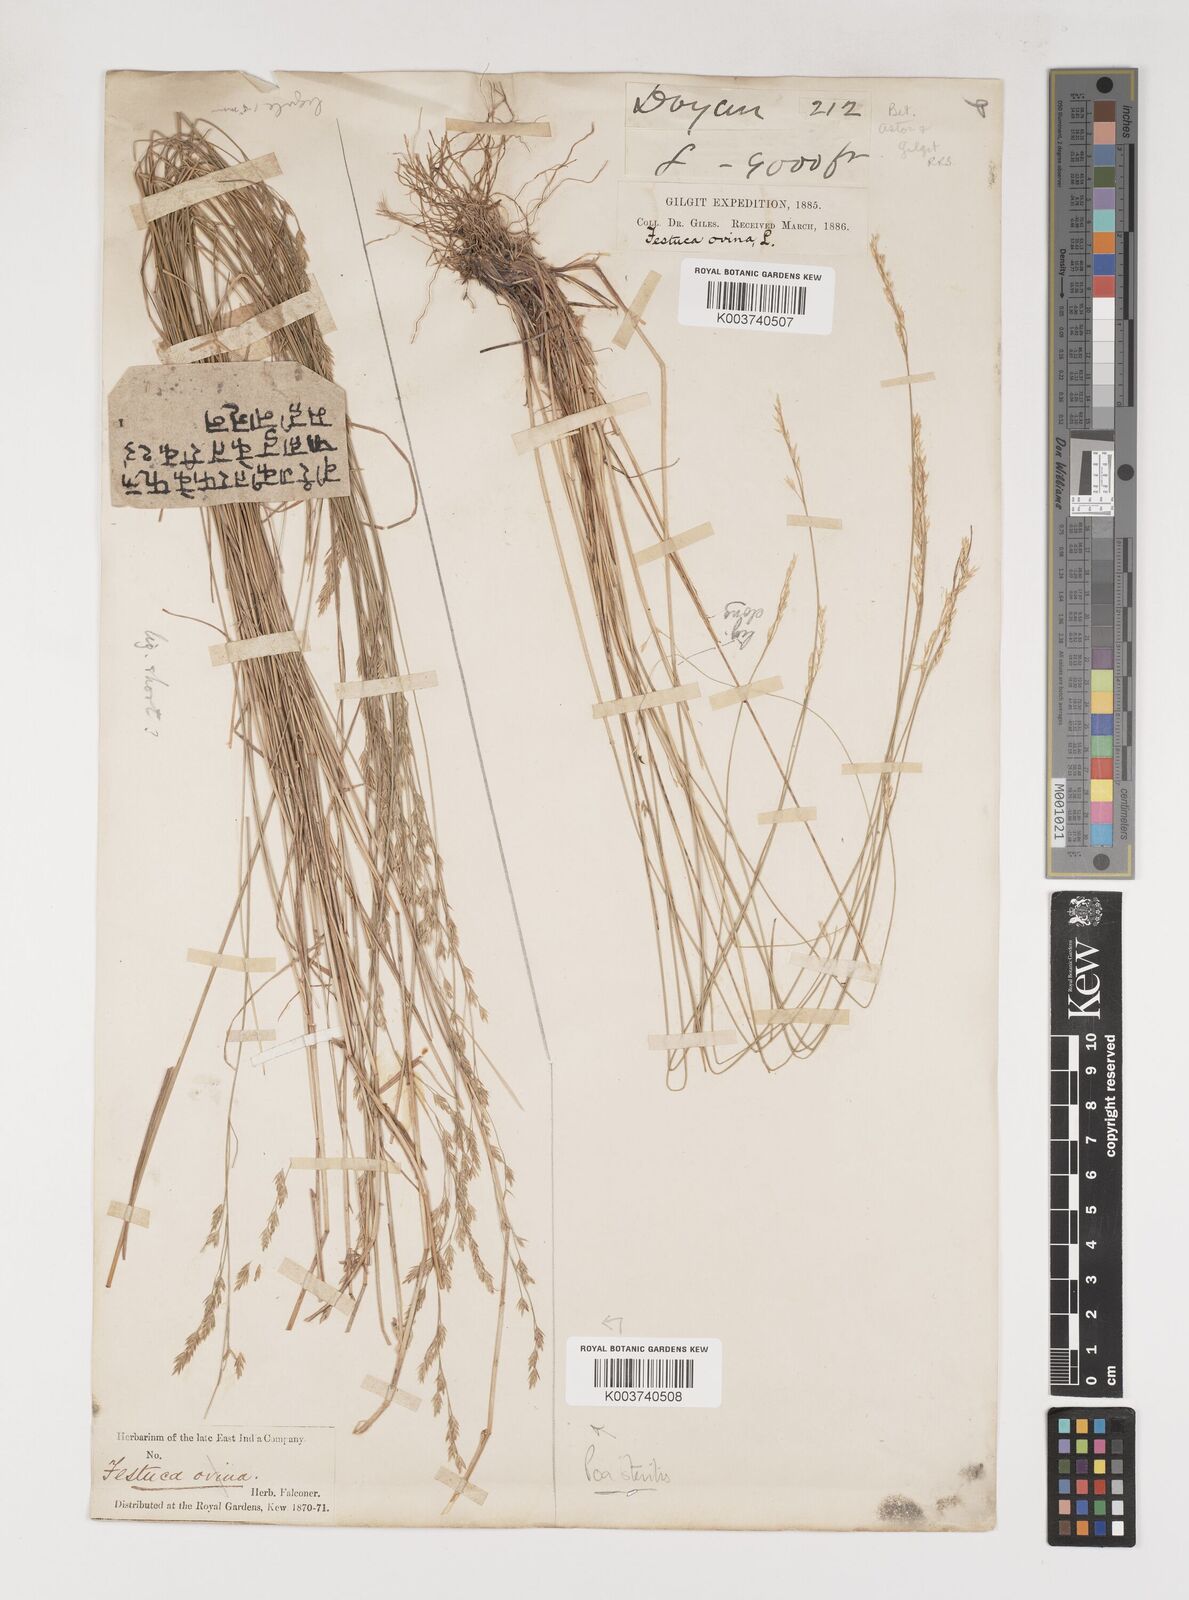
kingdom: Plantae
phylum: Tracheophyta
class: Liliopsida
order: Poales
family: Poaceae
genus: Poa
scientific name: Poa sterilis
